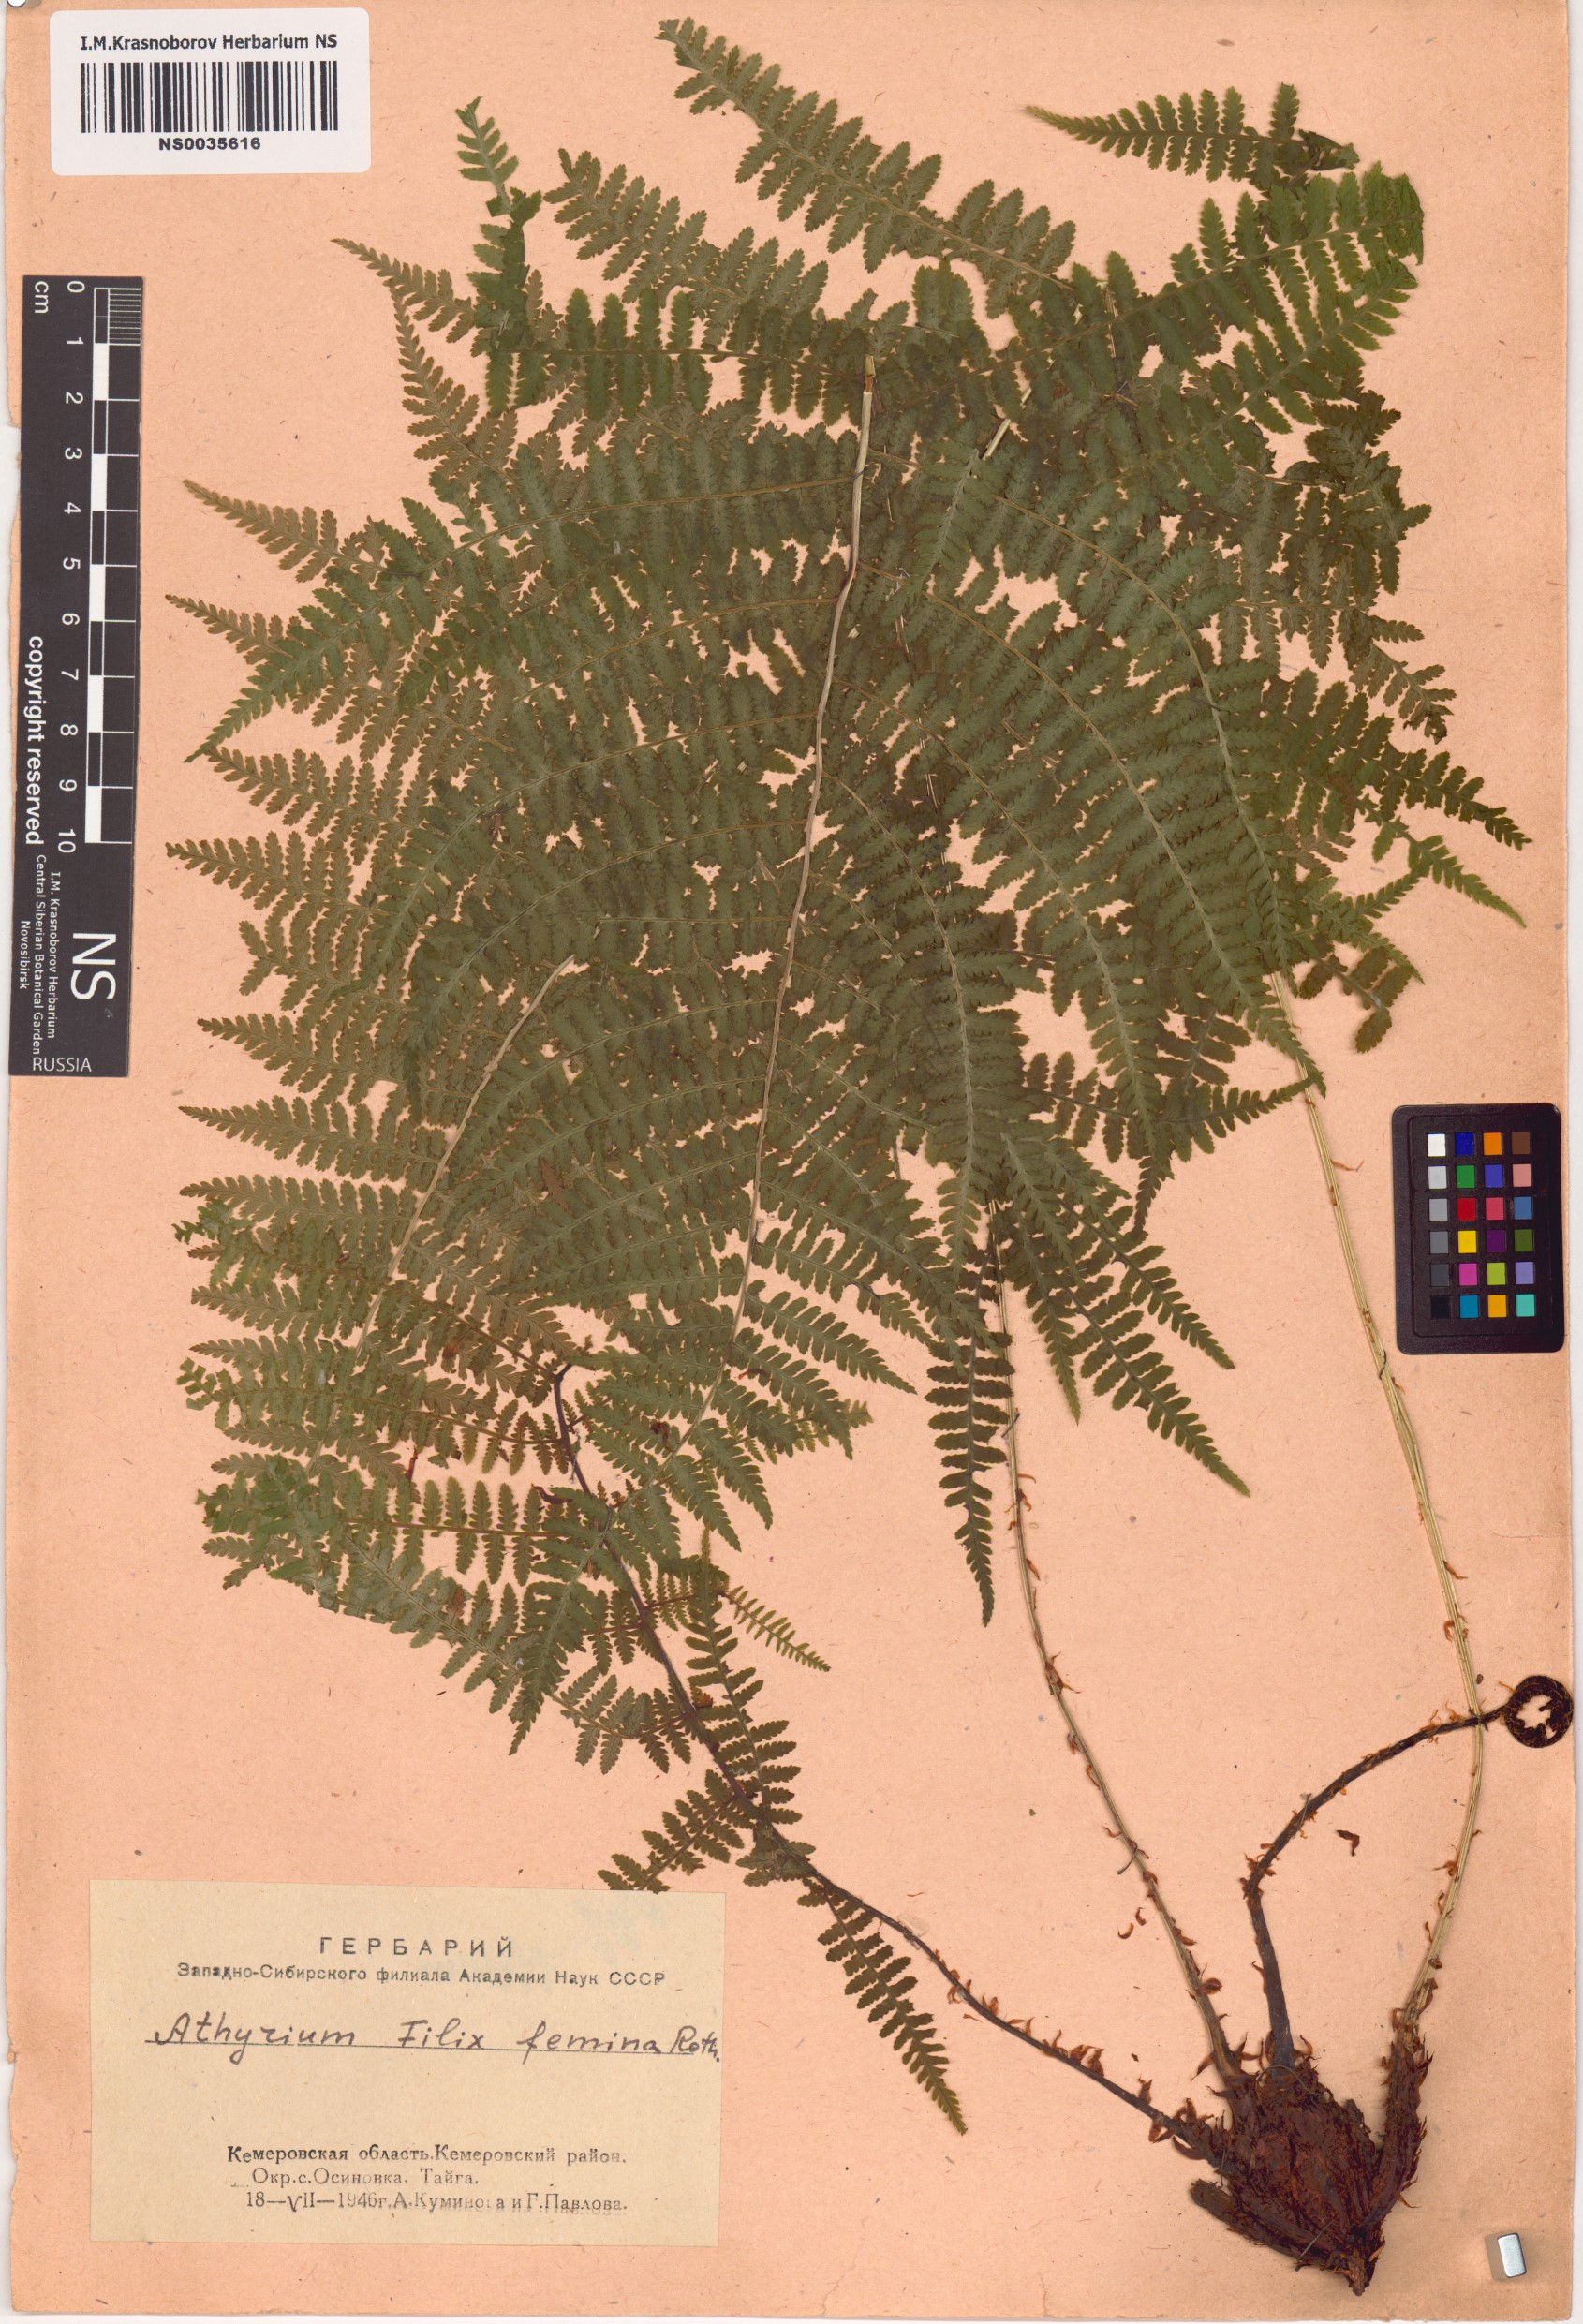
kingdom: Plantae
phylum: Tracheophyta
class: Polypodiopsida
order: Polypodiales
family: Athyriaceae
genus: Athyrium
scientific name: Athyrium filix-femina
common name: Lady fern
